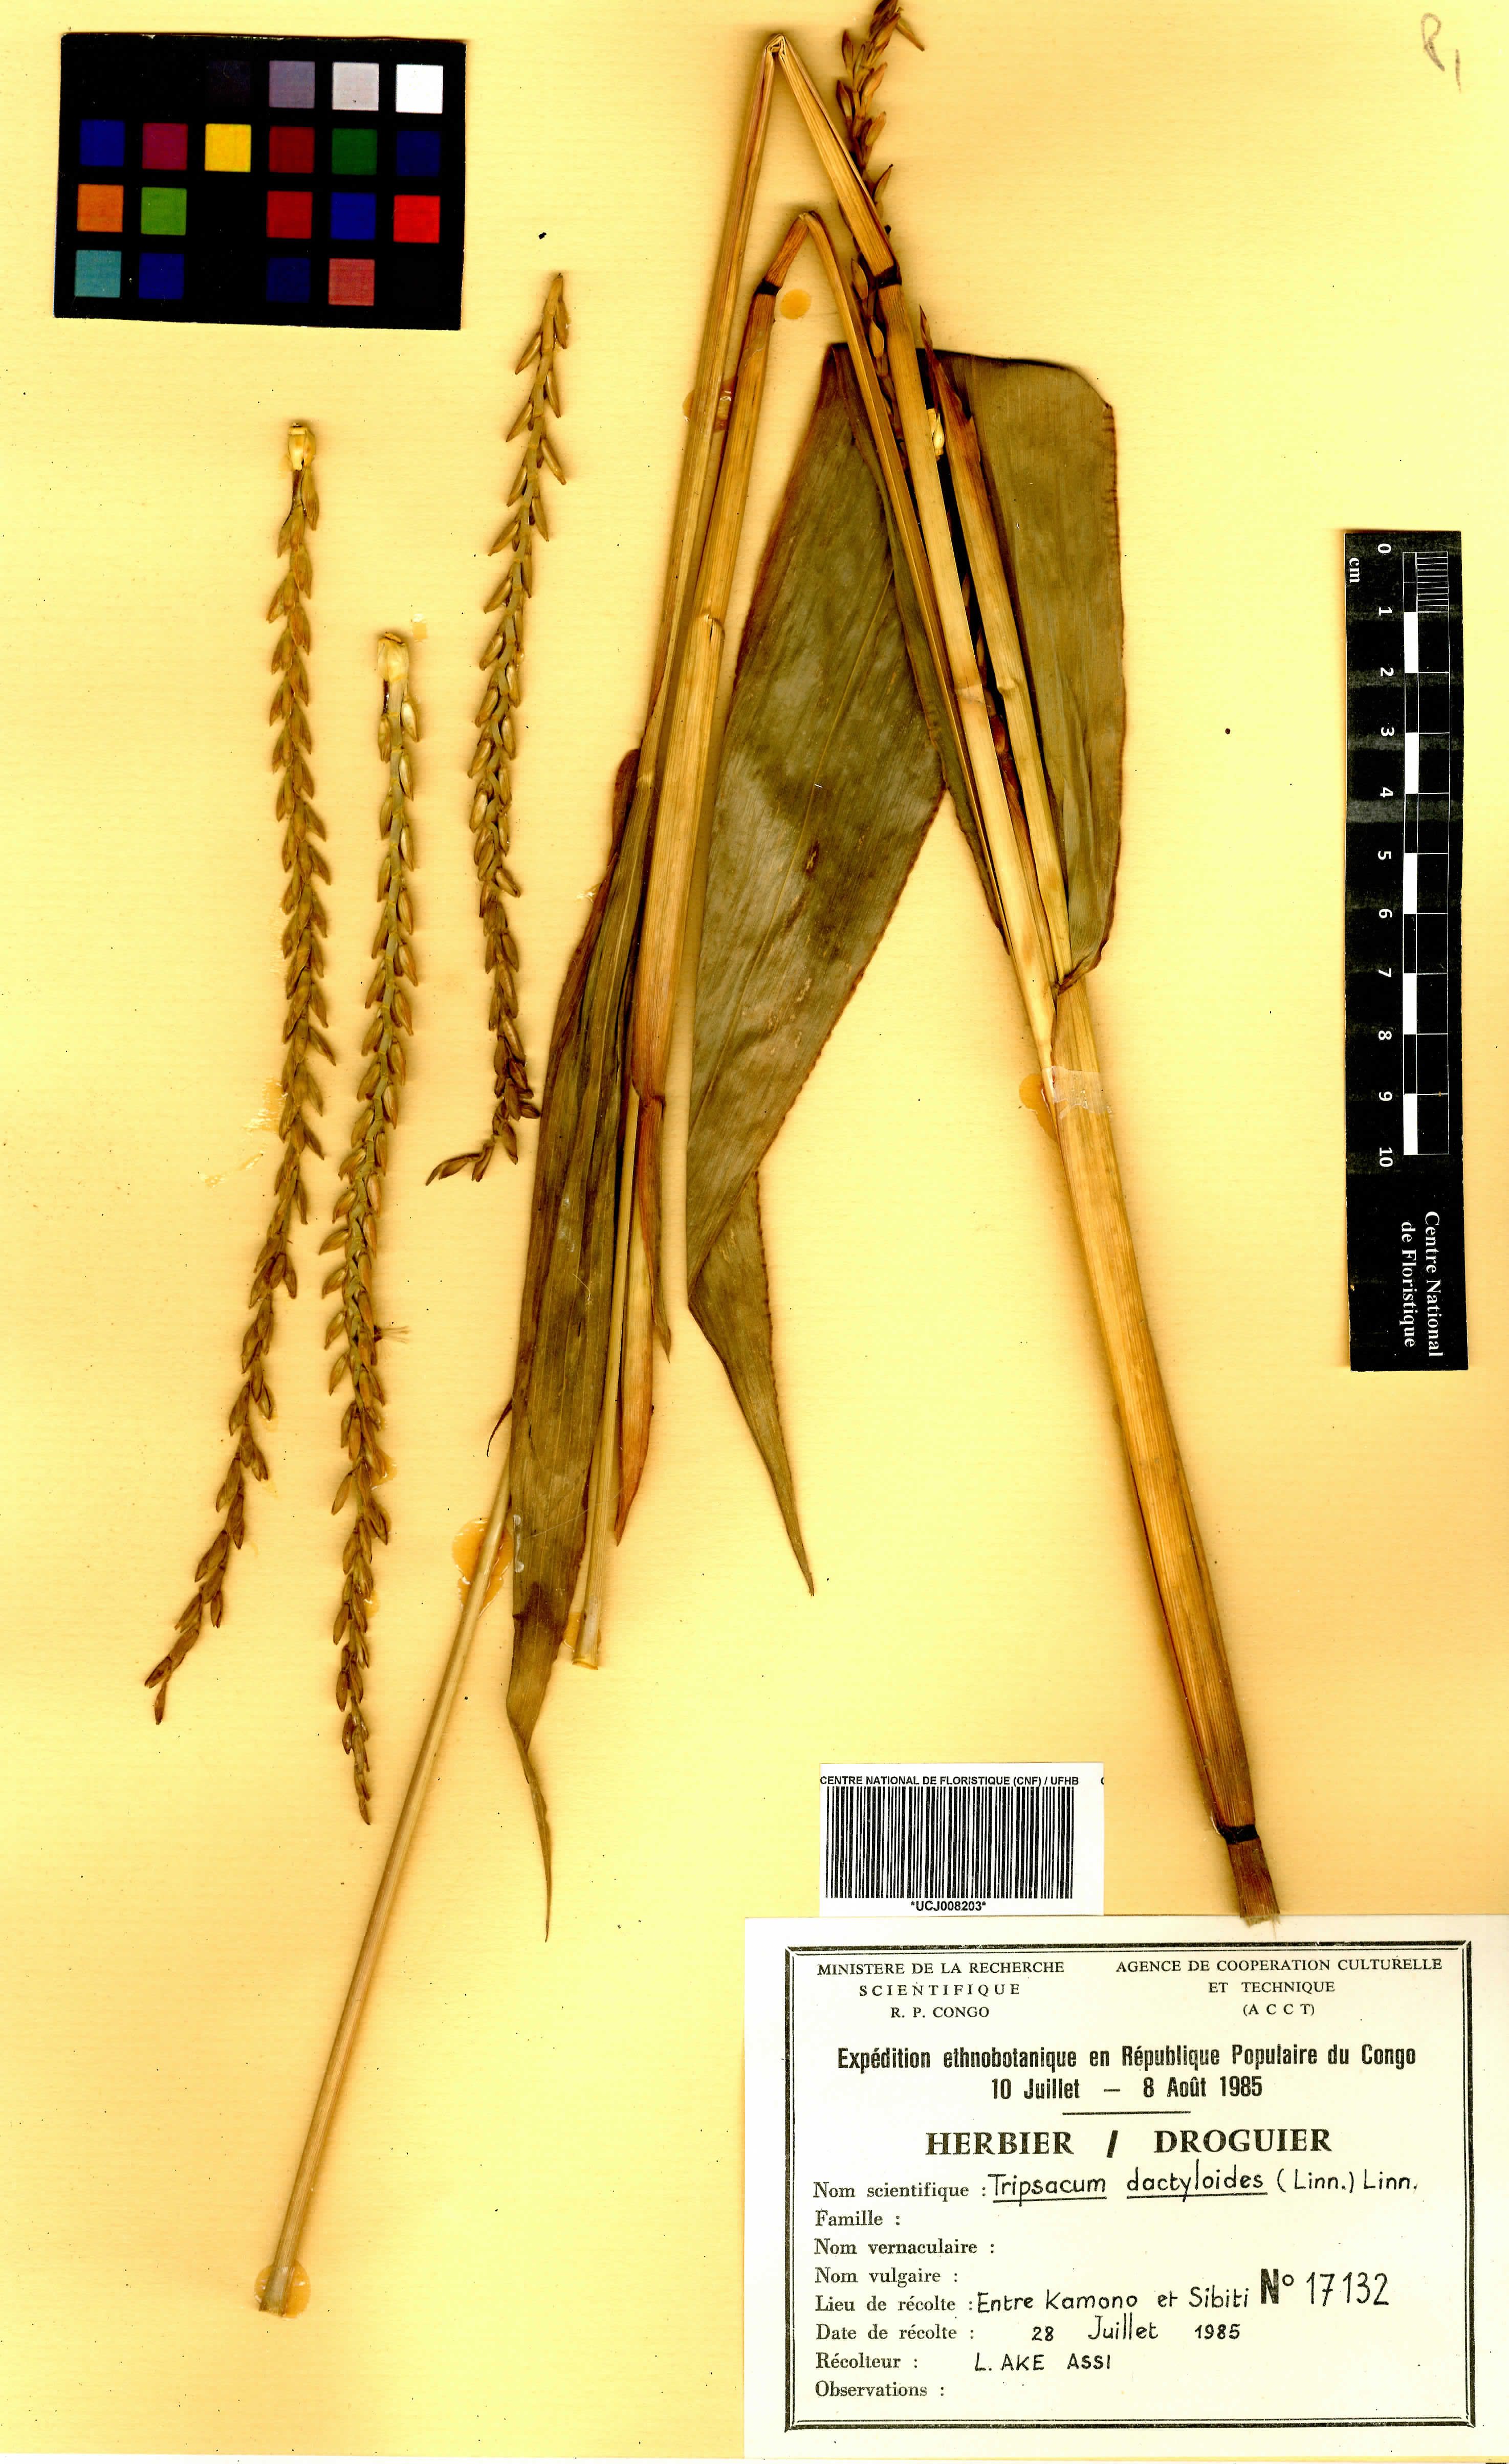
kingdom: Plantae
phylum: Tracheophyta
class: Liliopsida
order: Poales
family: Poaceae
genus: Tripsacum
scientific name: Tripsacum dactyloides
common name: Buffalo-grass
